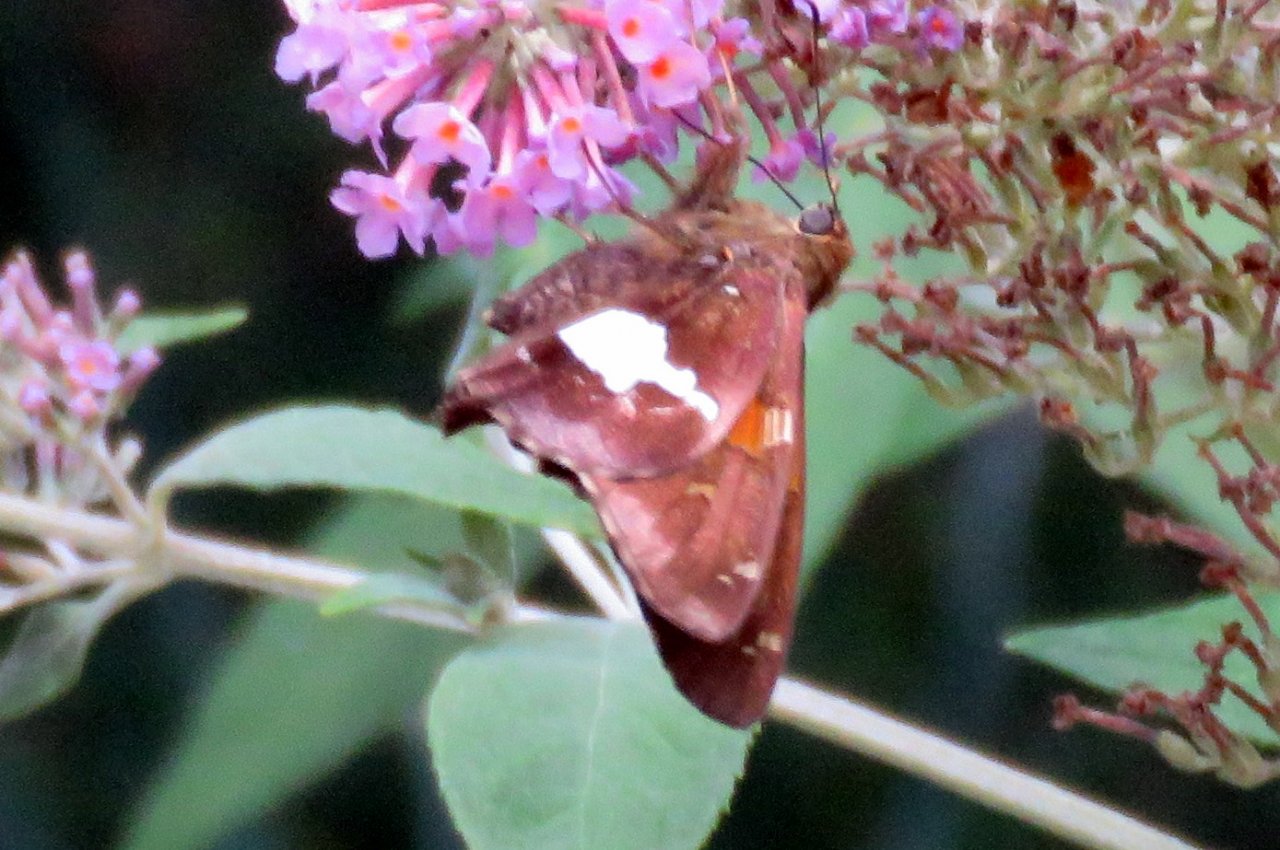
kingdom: Animalia
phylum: Arthropoda
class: Insecta
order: Lepidoptera
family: Hesperiidae
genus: Epargyreus
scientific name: Epargyreus clarus
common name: Silver-spotted Skipper
